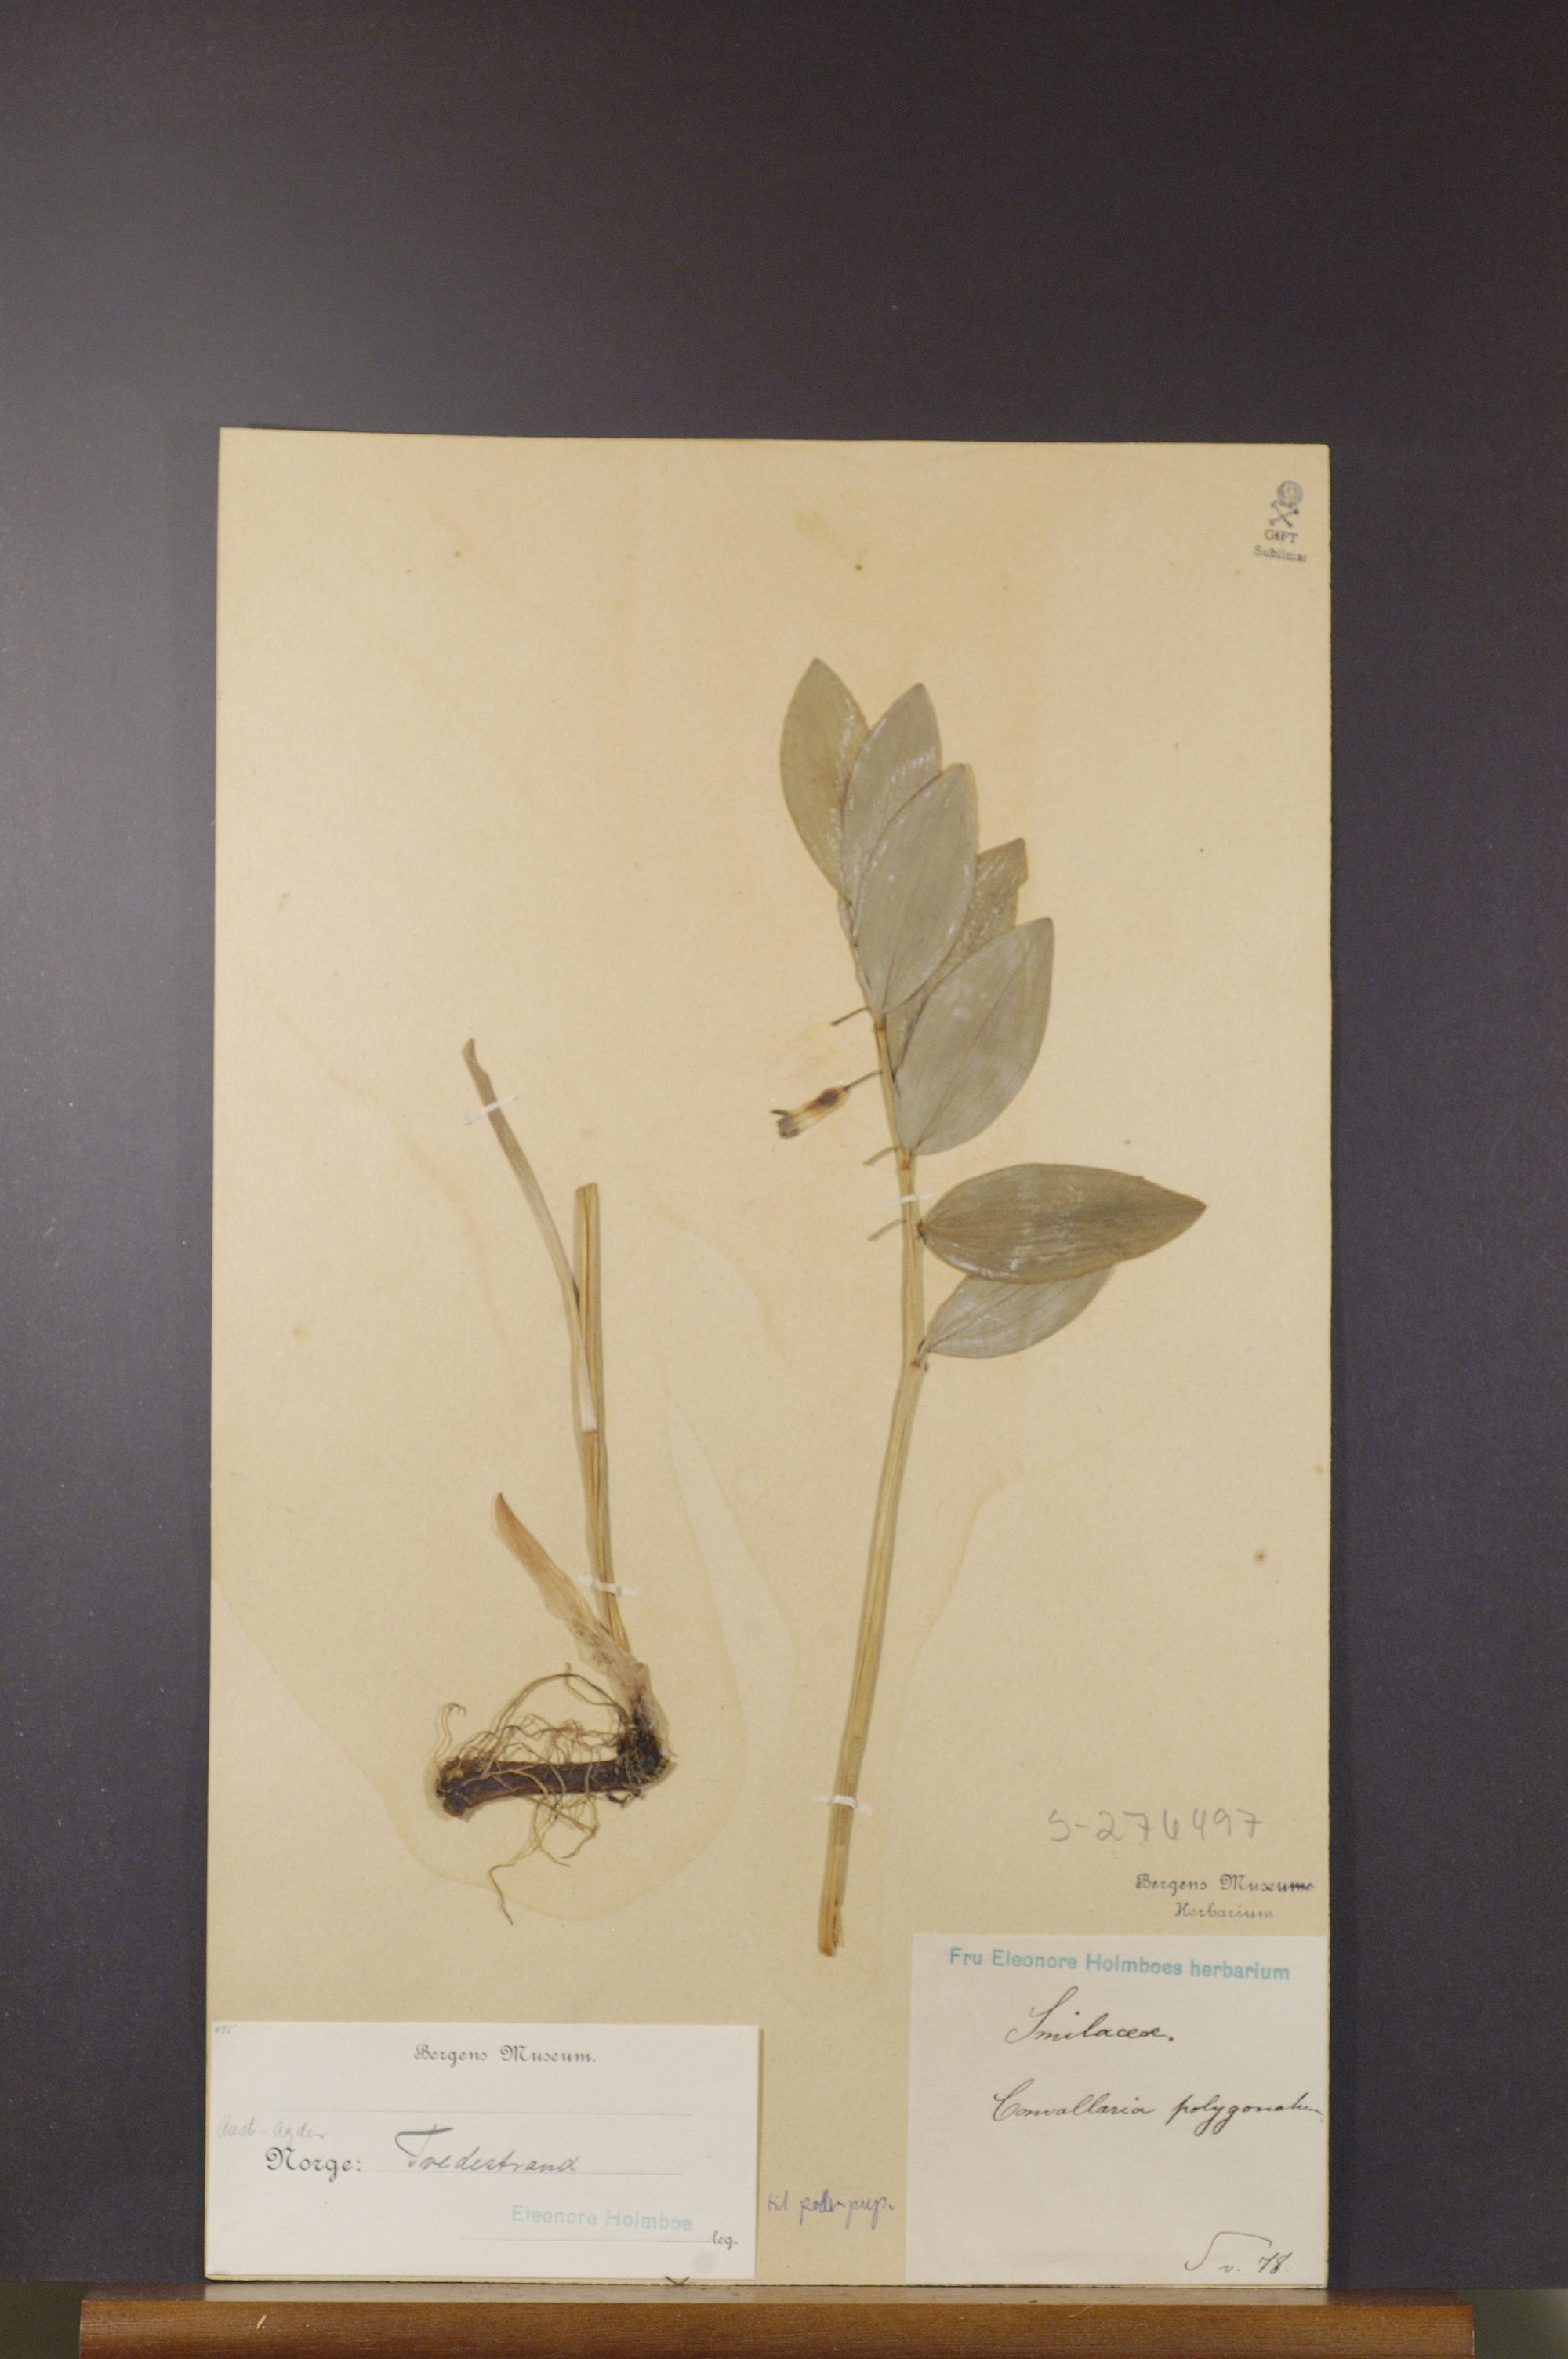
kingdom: Plantae
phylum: Tracheophyta
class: Liliopsida
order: Asparagales
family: Asparagaceae
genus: Polygonatum
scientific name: Polygonatum odoratum
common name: Angular solomon's-seal
